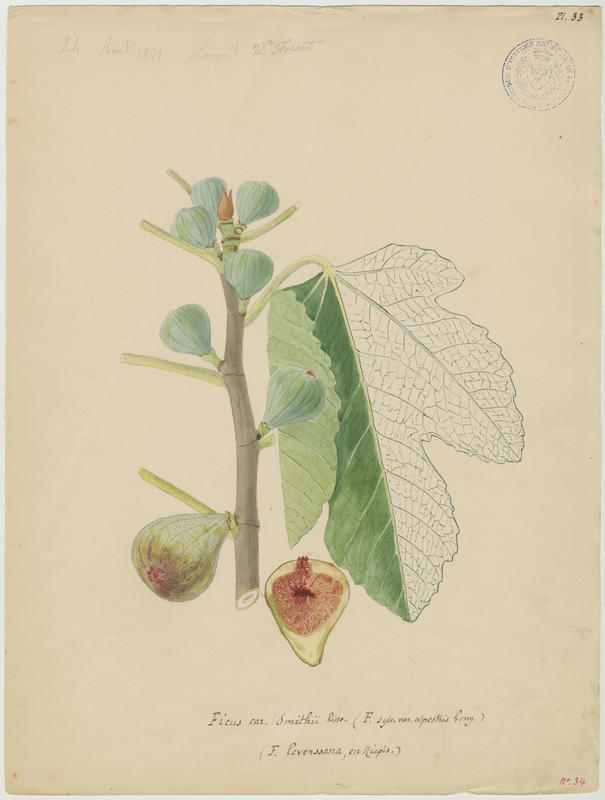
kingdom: Plantae
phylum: Tracheophyta
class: Magnoliopsida
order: Rosales
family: Moraceae
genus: Ficus
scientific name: Ficus carica
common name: Fig
